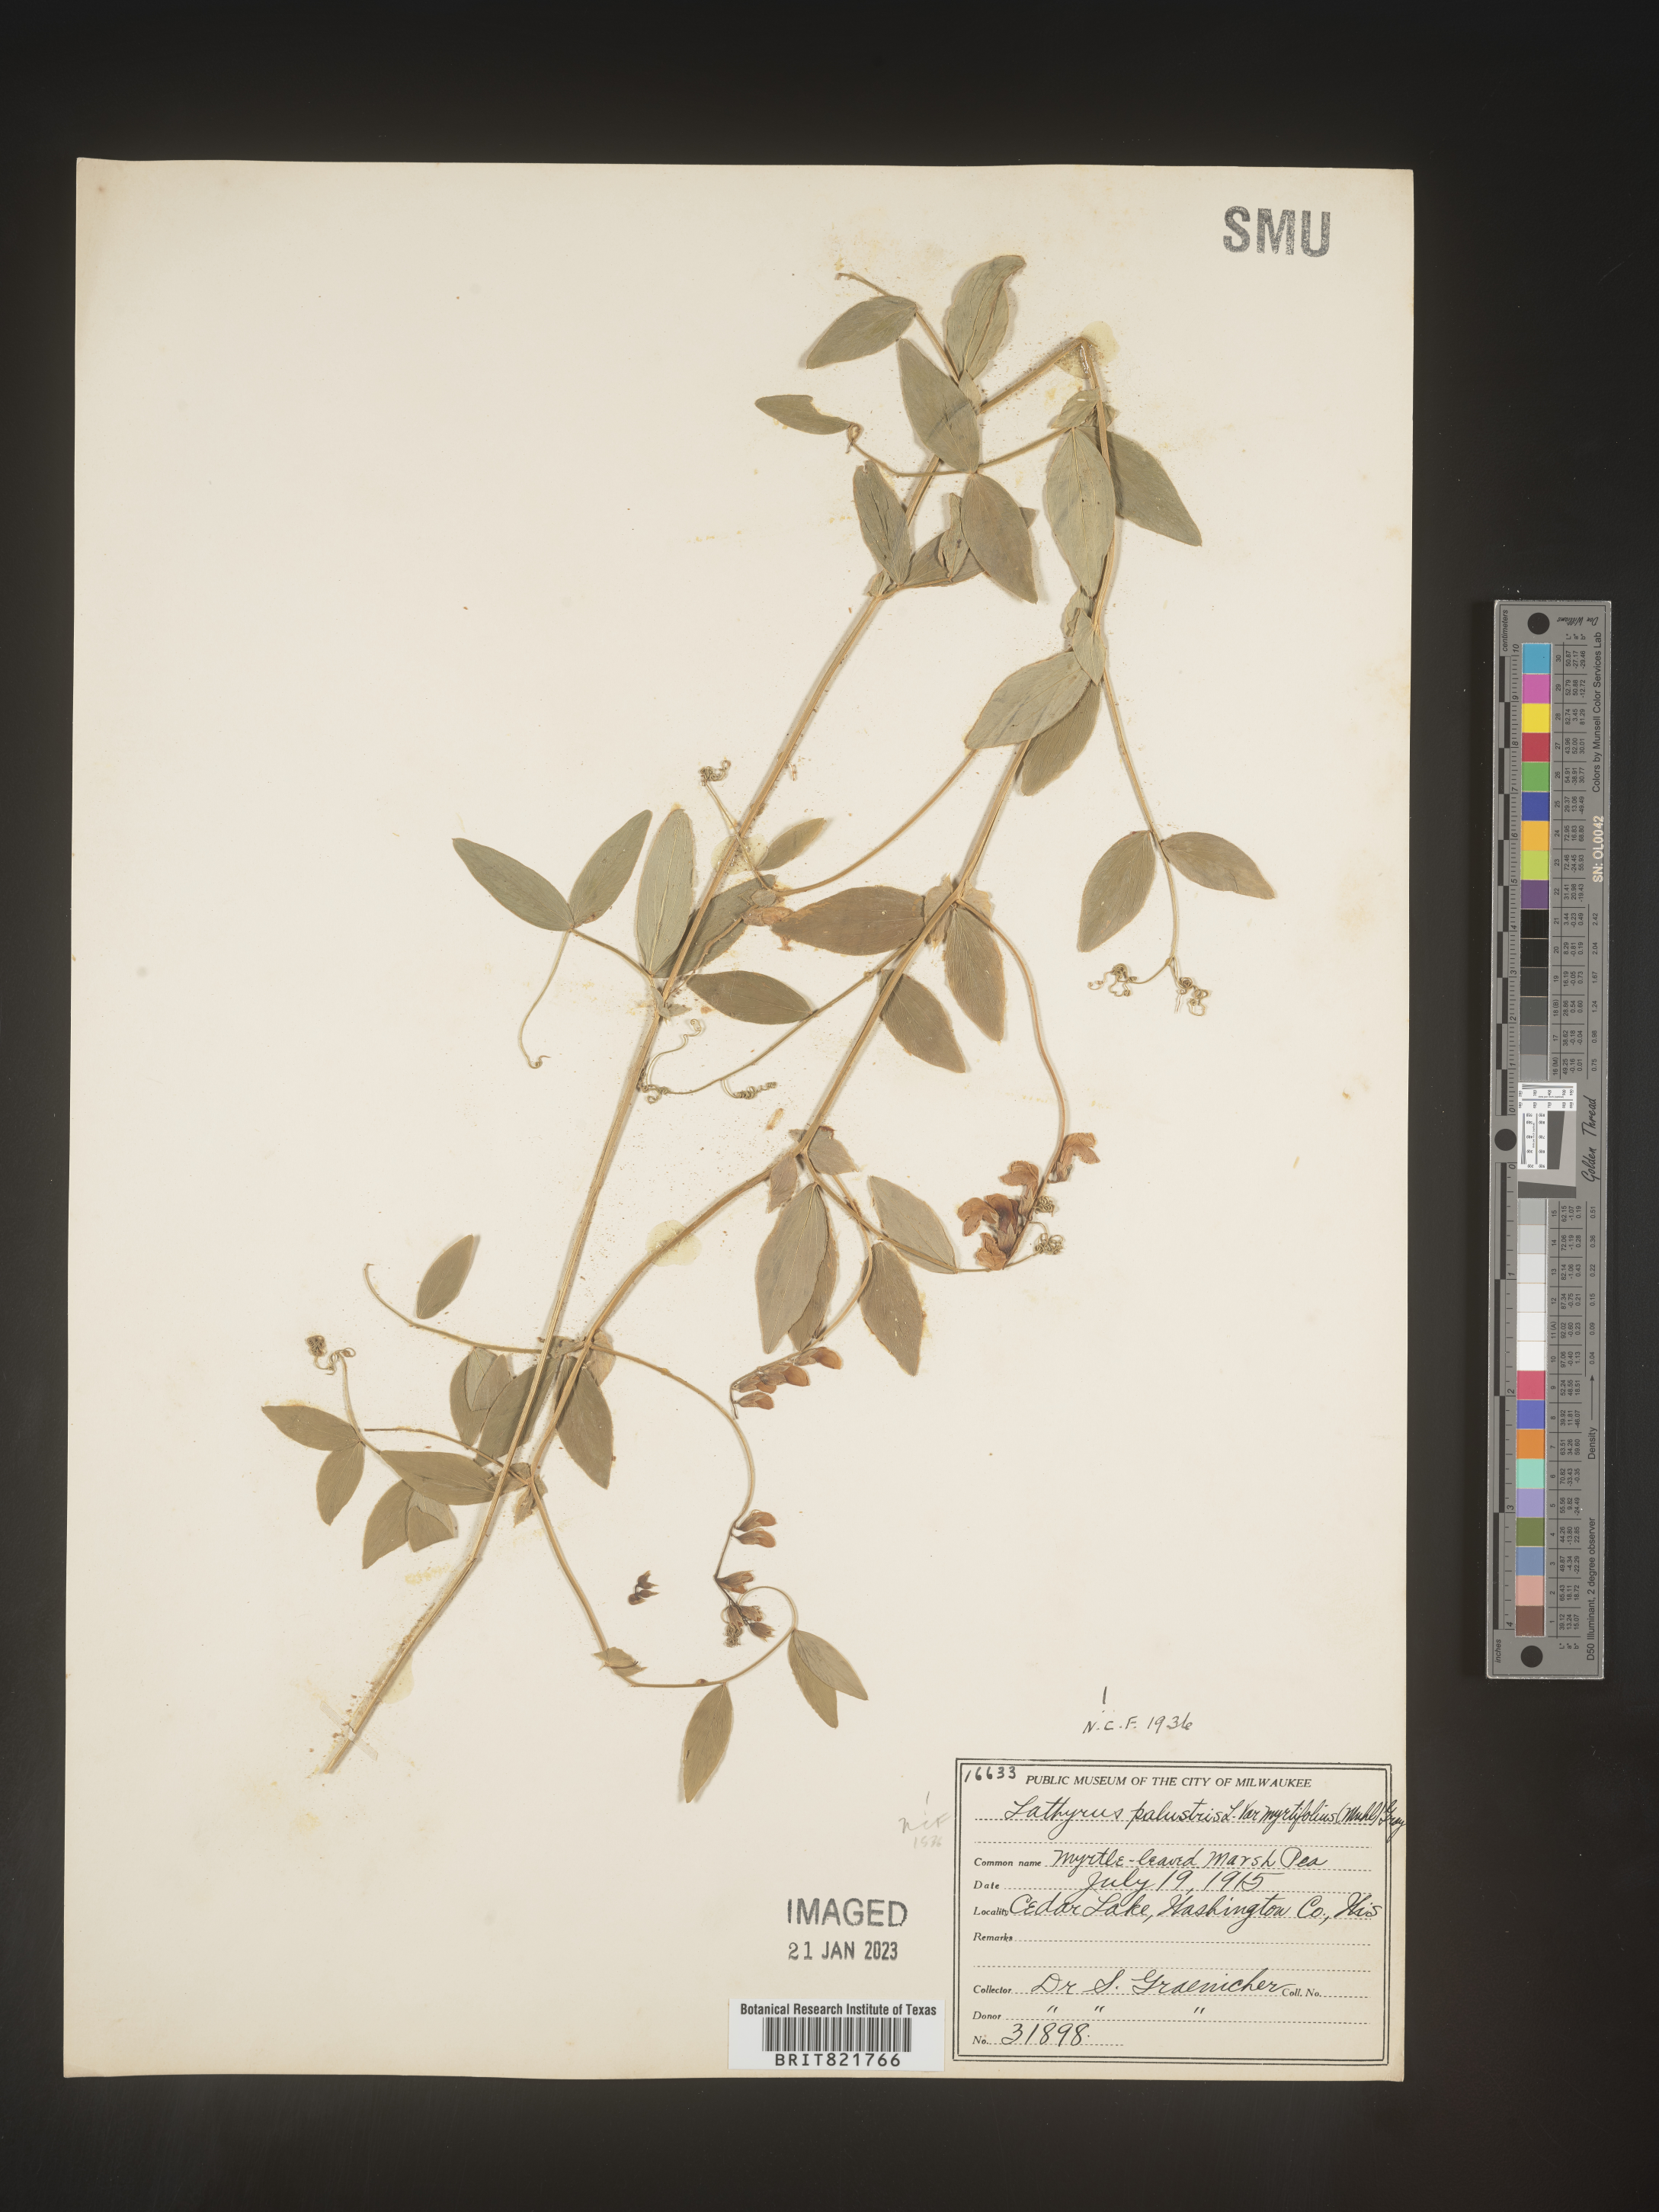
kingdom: Plantae
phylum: Tracheophyta
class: Magnoliopsida
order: Fabales
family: Fabaceae
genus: Lathyrus
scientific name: Lathyrus palustris
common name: Marsh pea
